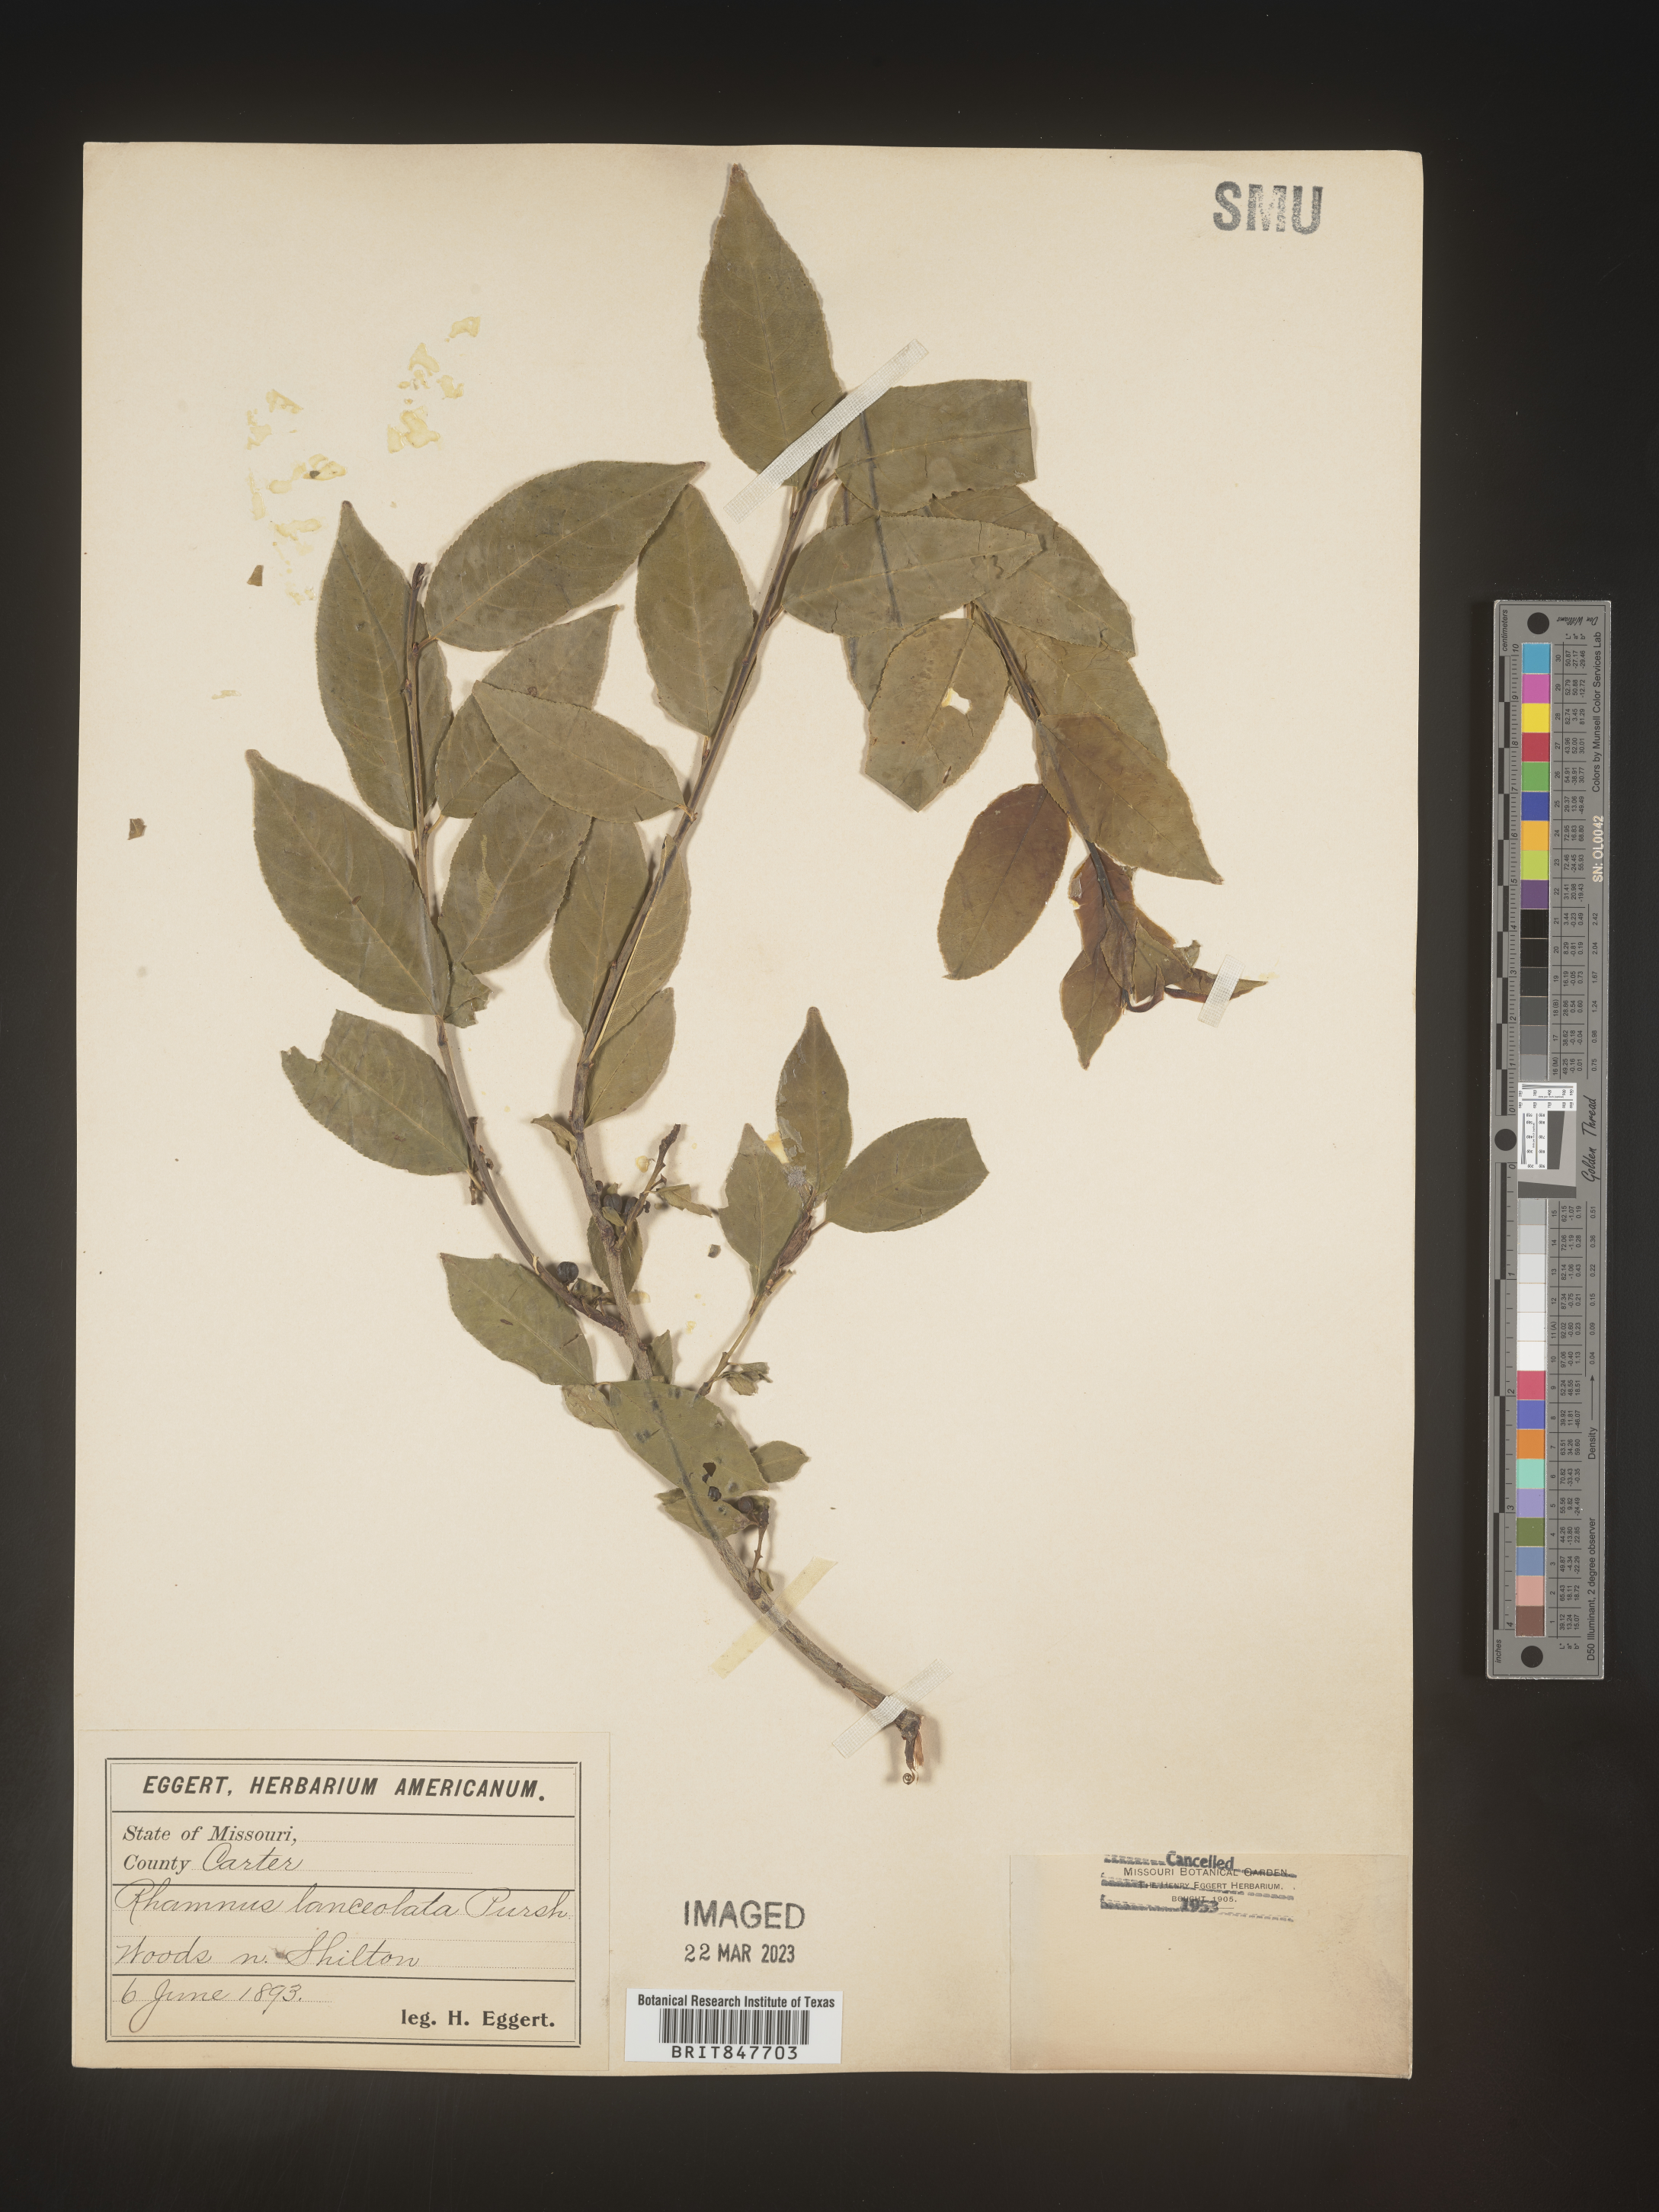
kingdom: Plantae
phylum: Tracheophyta
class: Magnoliopsida
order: Rosales
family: Rhamnaceae
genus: Endotropis
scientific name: Endotropis lanceolata
